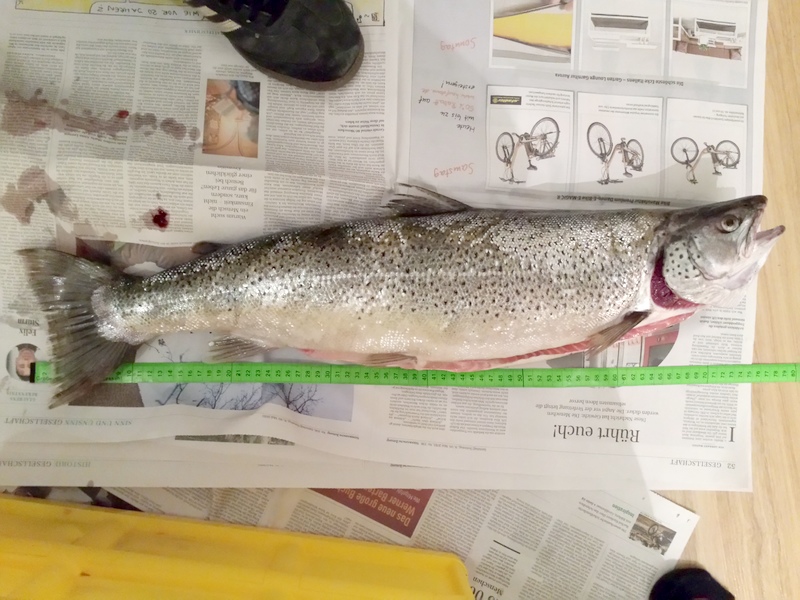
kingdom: Animalia
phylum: Chordata
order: Salmoniformes
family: Salmonidae
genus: Salmo
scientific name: Salmo trutta
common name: Brown trout
